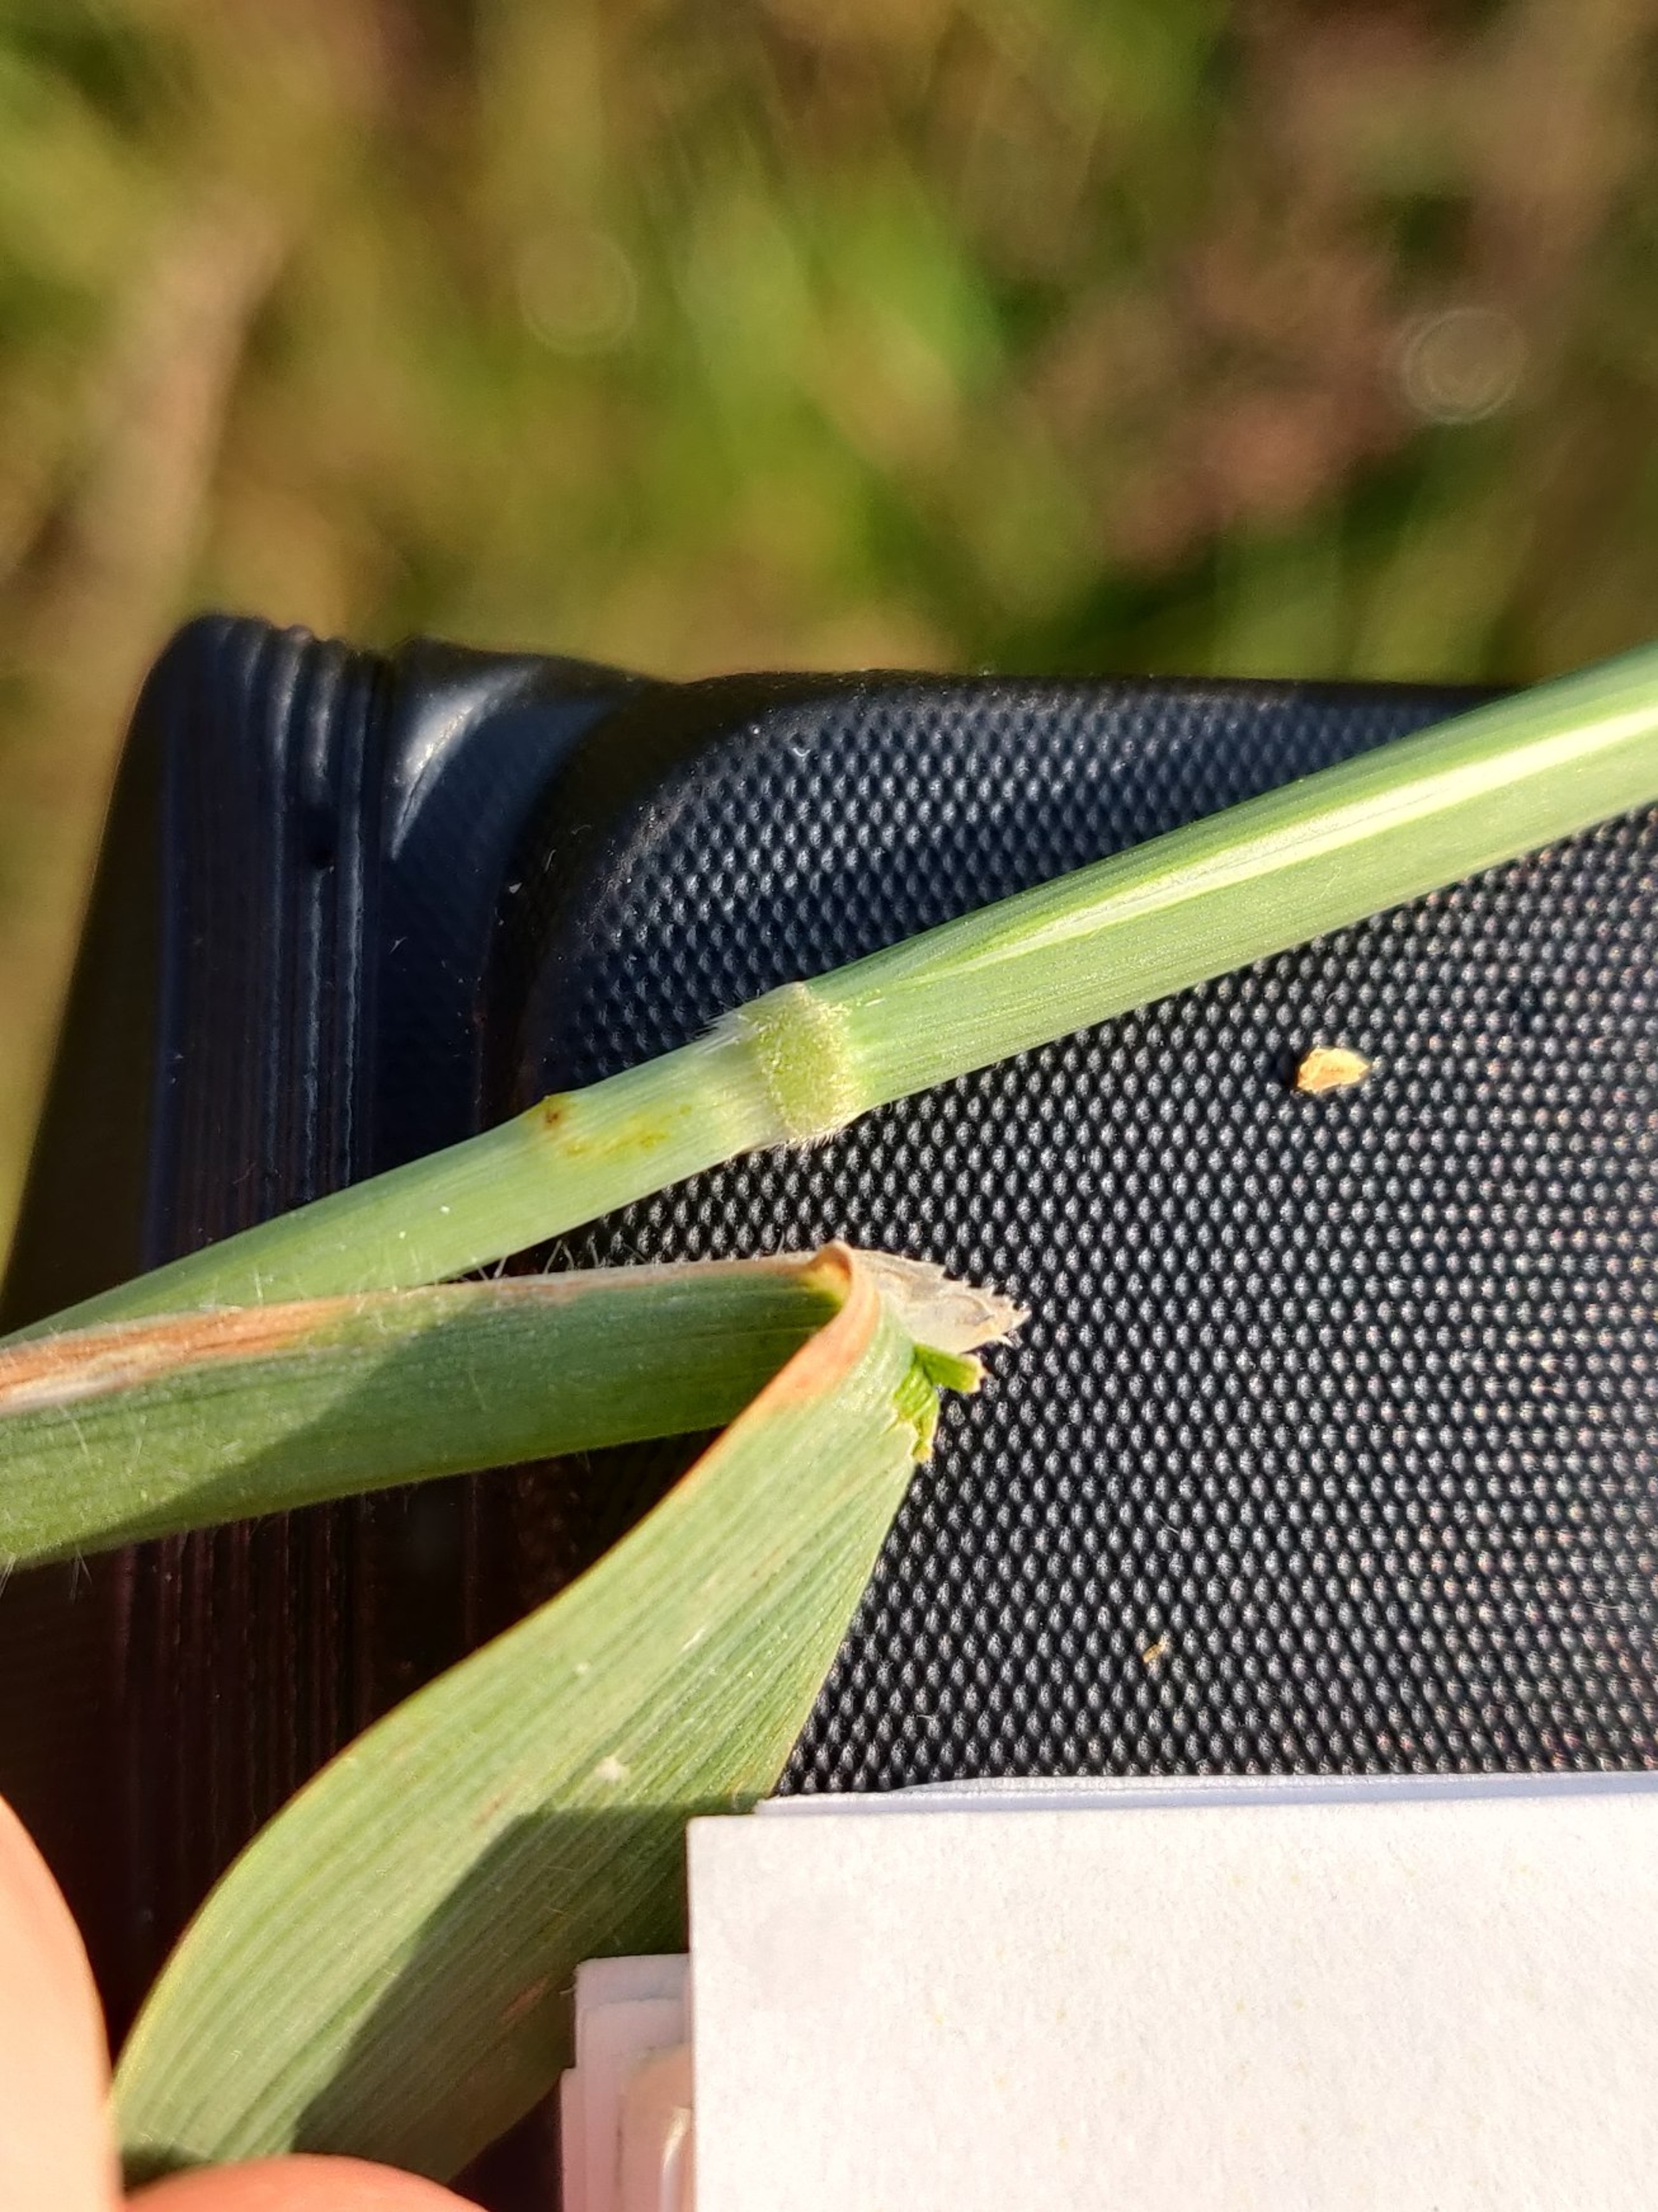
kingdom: Plantae
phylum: Tracheophyta
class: Liliopsida
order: Poales
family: Poaceae
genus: Holcus
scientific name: Holcus mollis
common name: Krybende hestegræs
